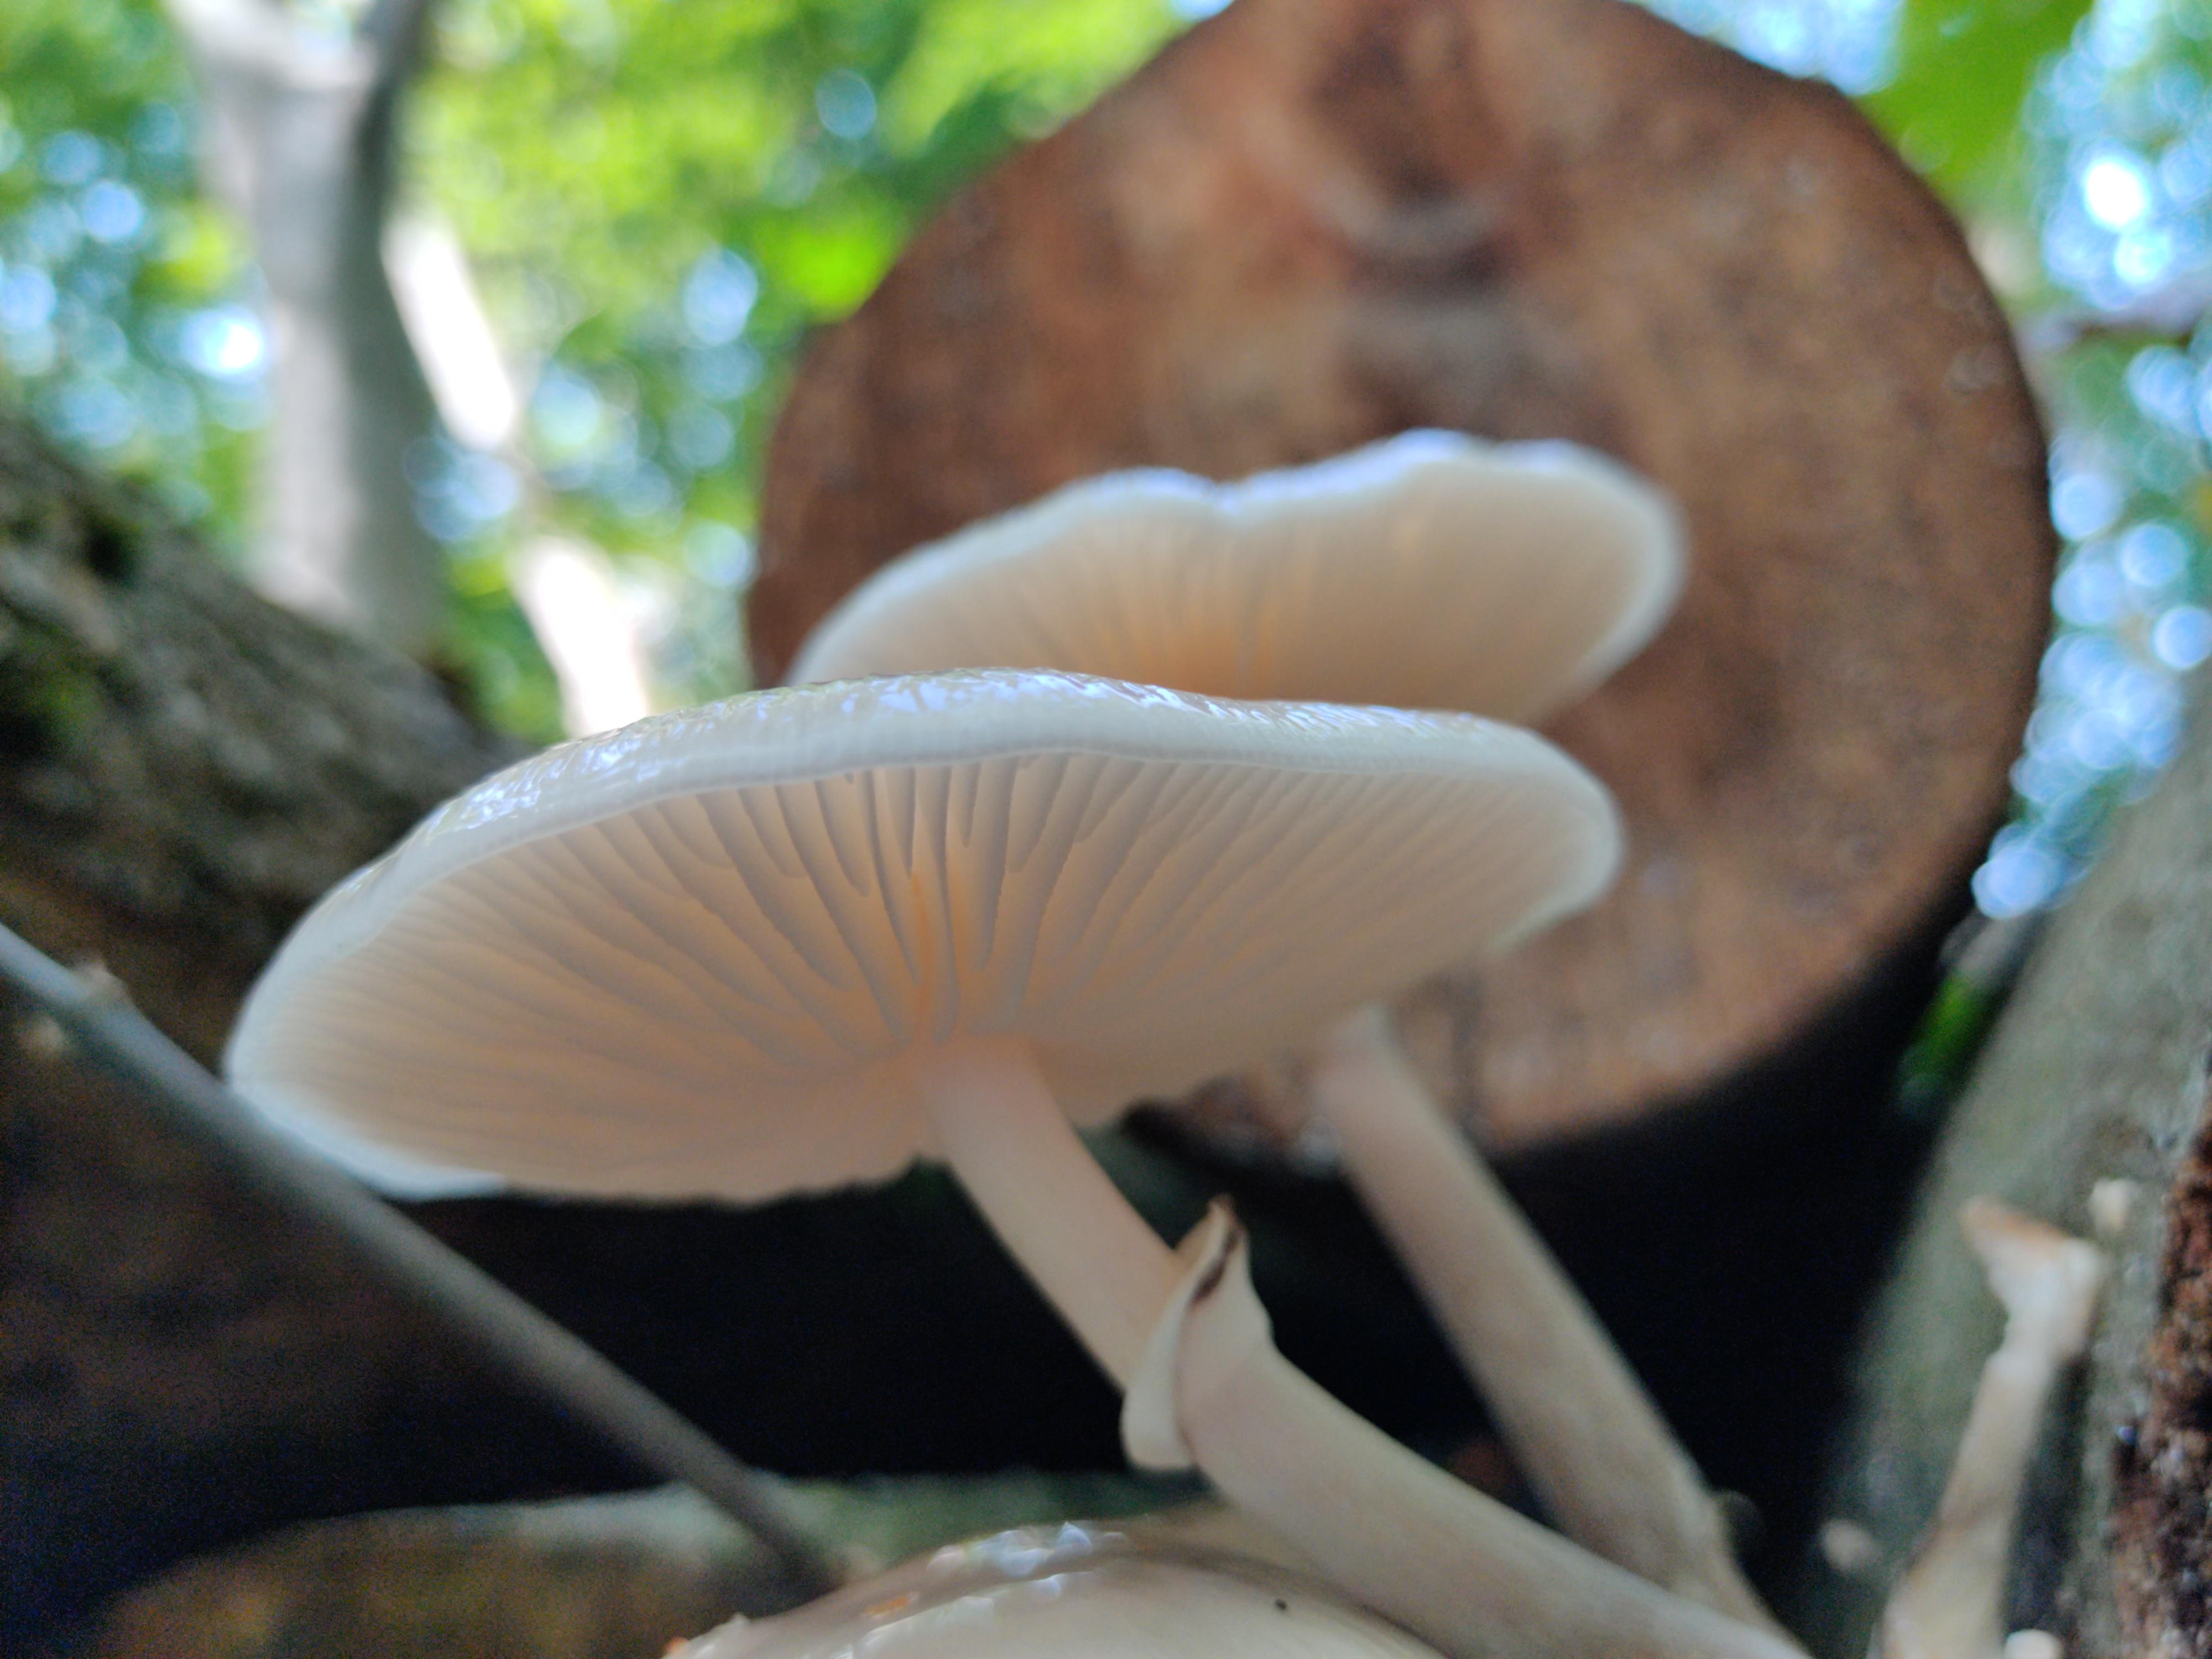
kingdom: Fungi
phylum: Basidiomycota
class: Agaricomycetes
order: Agaricales
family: Physalacriaceae
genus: Mucidula
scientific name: Mucidula mucida
